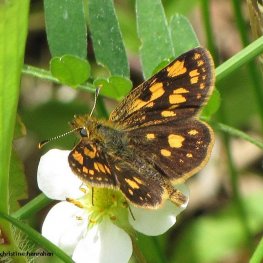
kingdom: Animalia
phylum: Arthropoda
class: Insecta
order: Lepidoptera
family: Hesperiidae
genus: Carterocephalus
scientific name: Carterocephalus palaemon
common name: Chequered Skipper
